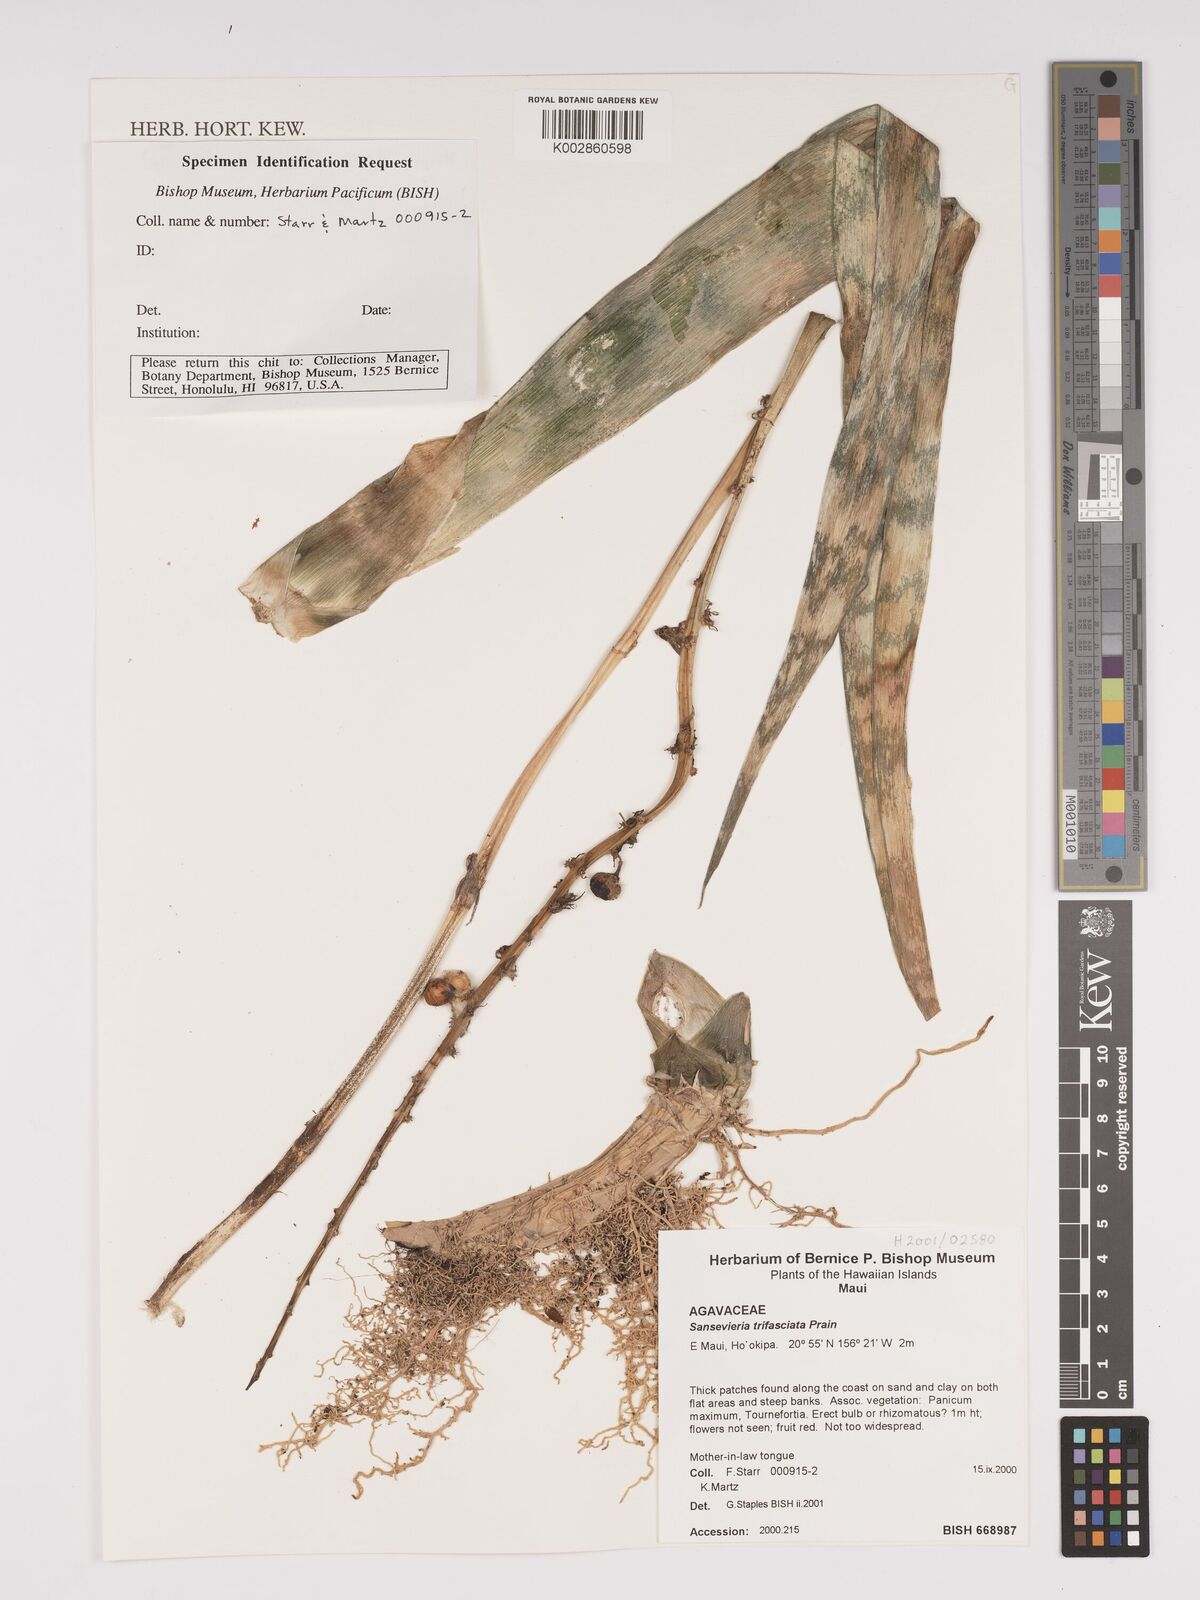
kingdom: Plantae
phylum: Tracheophyta
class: Liliopsida
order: Asparagales
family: Asparagaceae
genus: Dracaena
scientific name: Dracaena trifasciata
